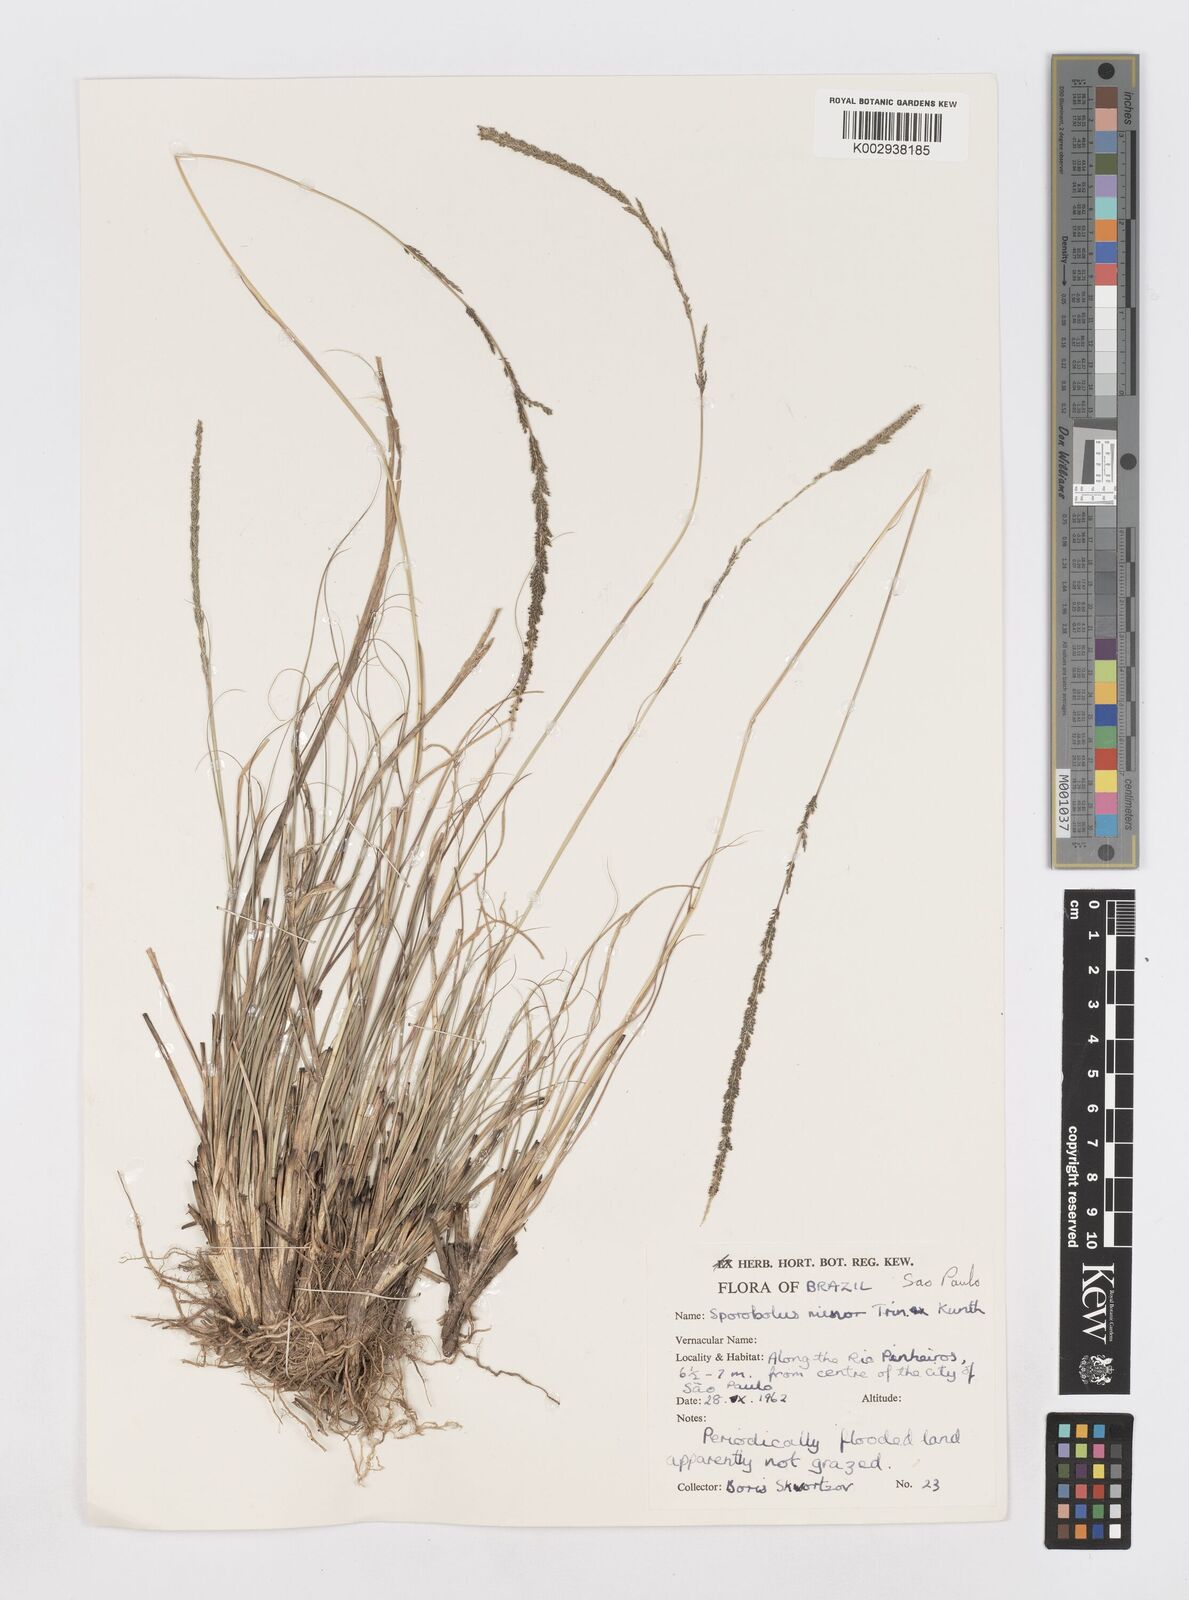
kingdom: Plantae
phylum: Tracheophyta
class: Liliopsida
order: Poales
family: Poaceae
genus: Sporobolus
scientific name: Sporobolus indicus
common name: Smut grass
